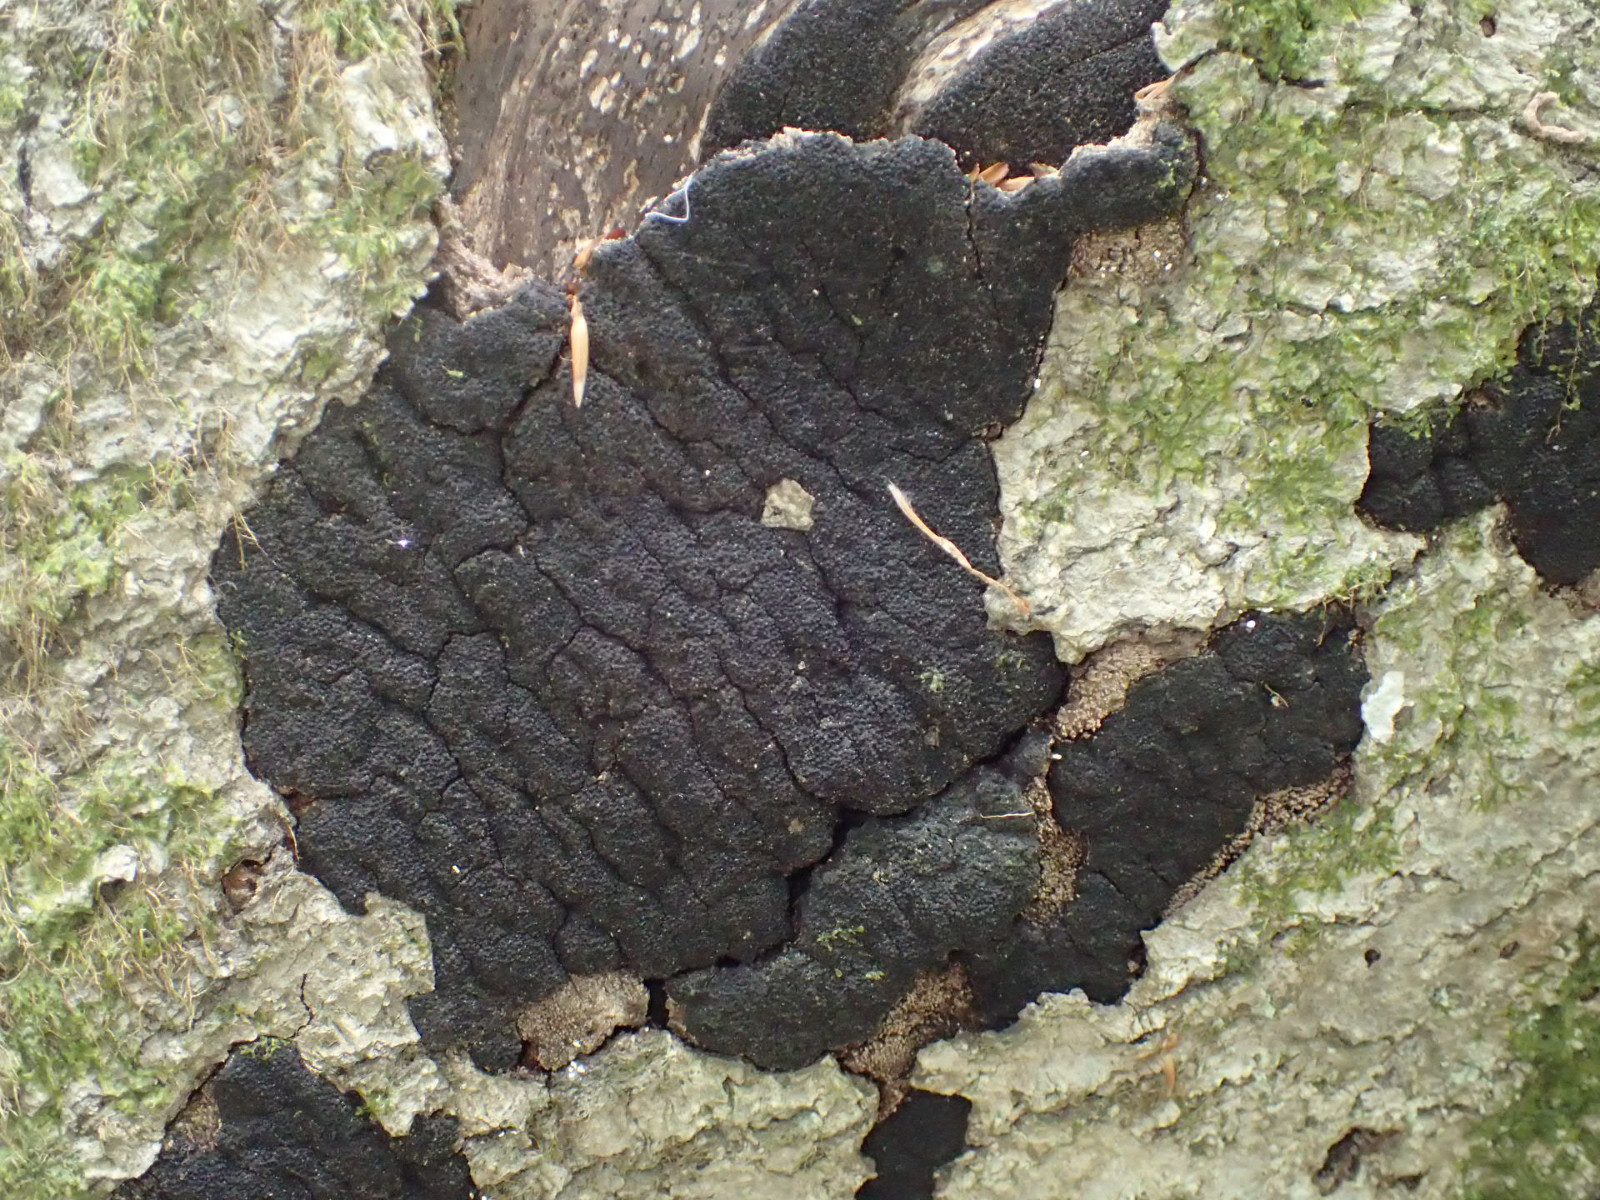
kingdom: Fungi
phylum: Ascomycota
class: Sordariomycetes
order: Xylariales
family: Diatrypaceae
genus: Eutypa
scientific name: Eutypa spinosa
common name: grov kulskorpe
